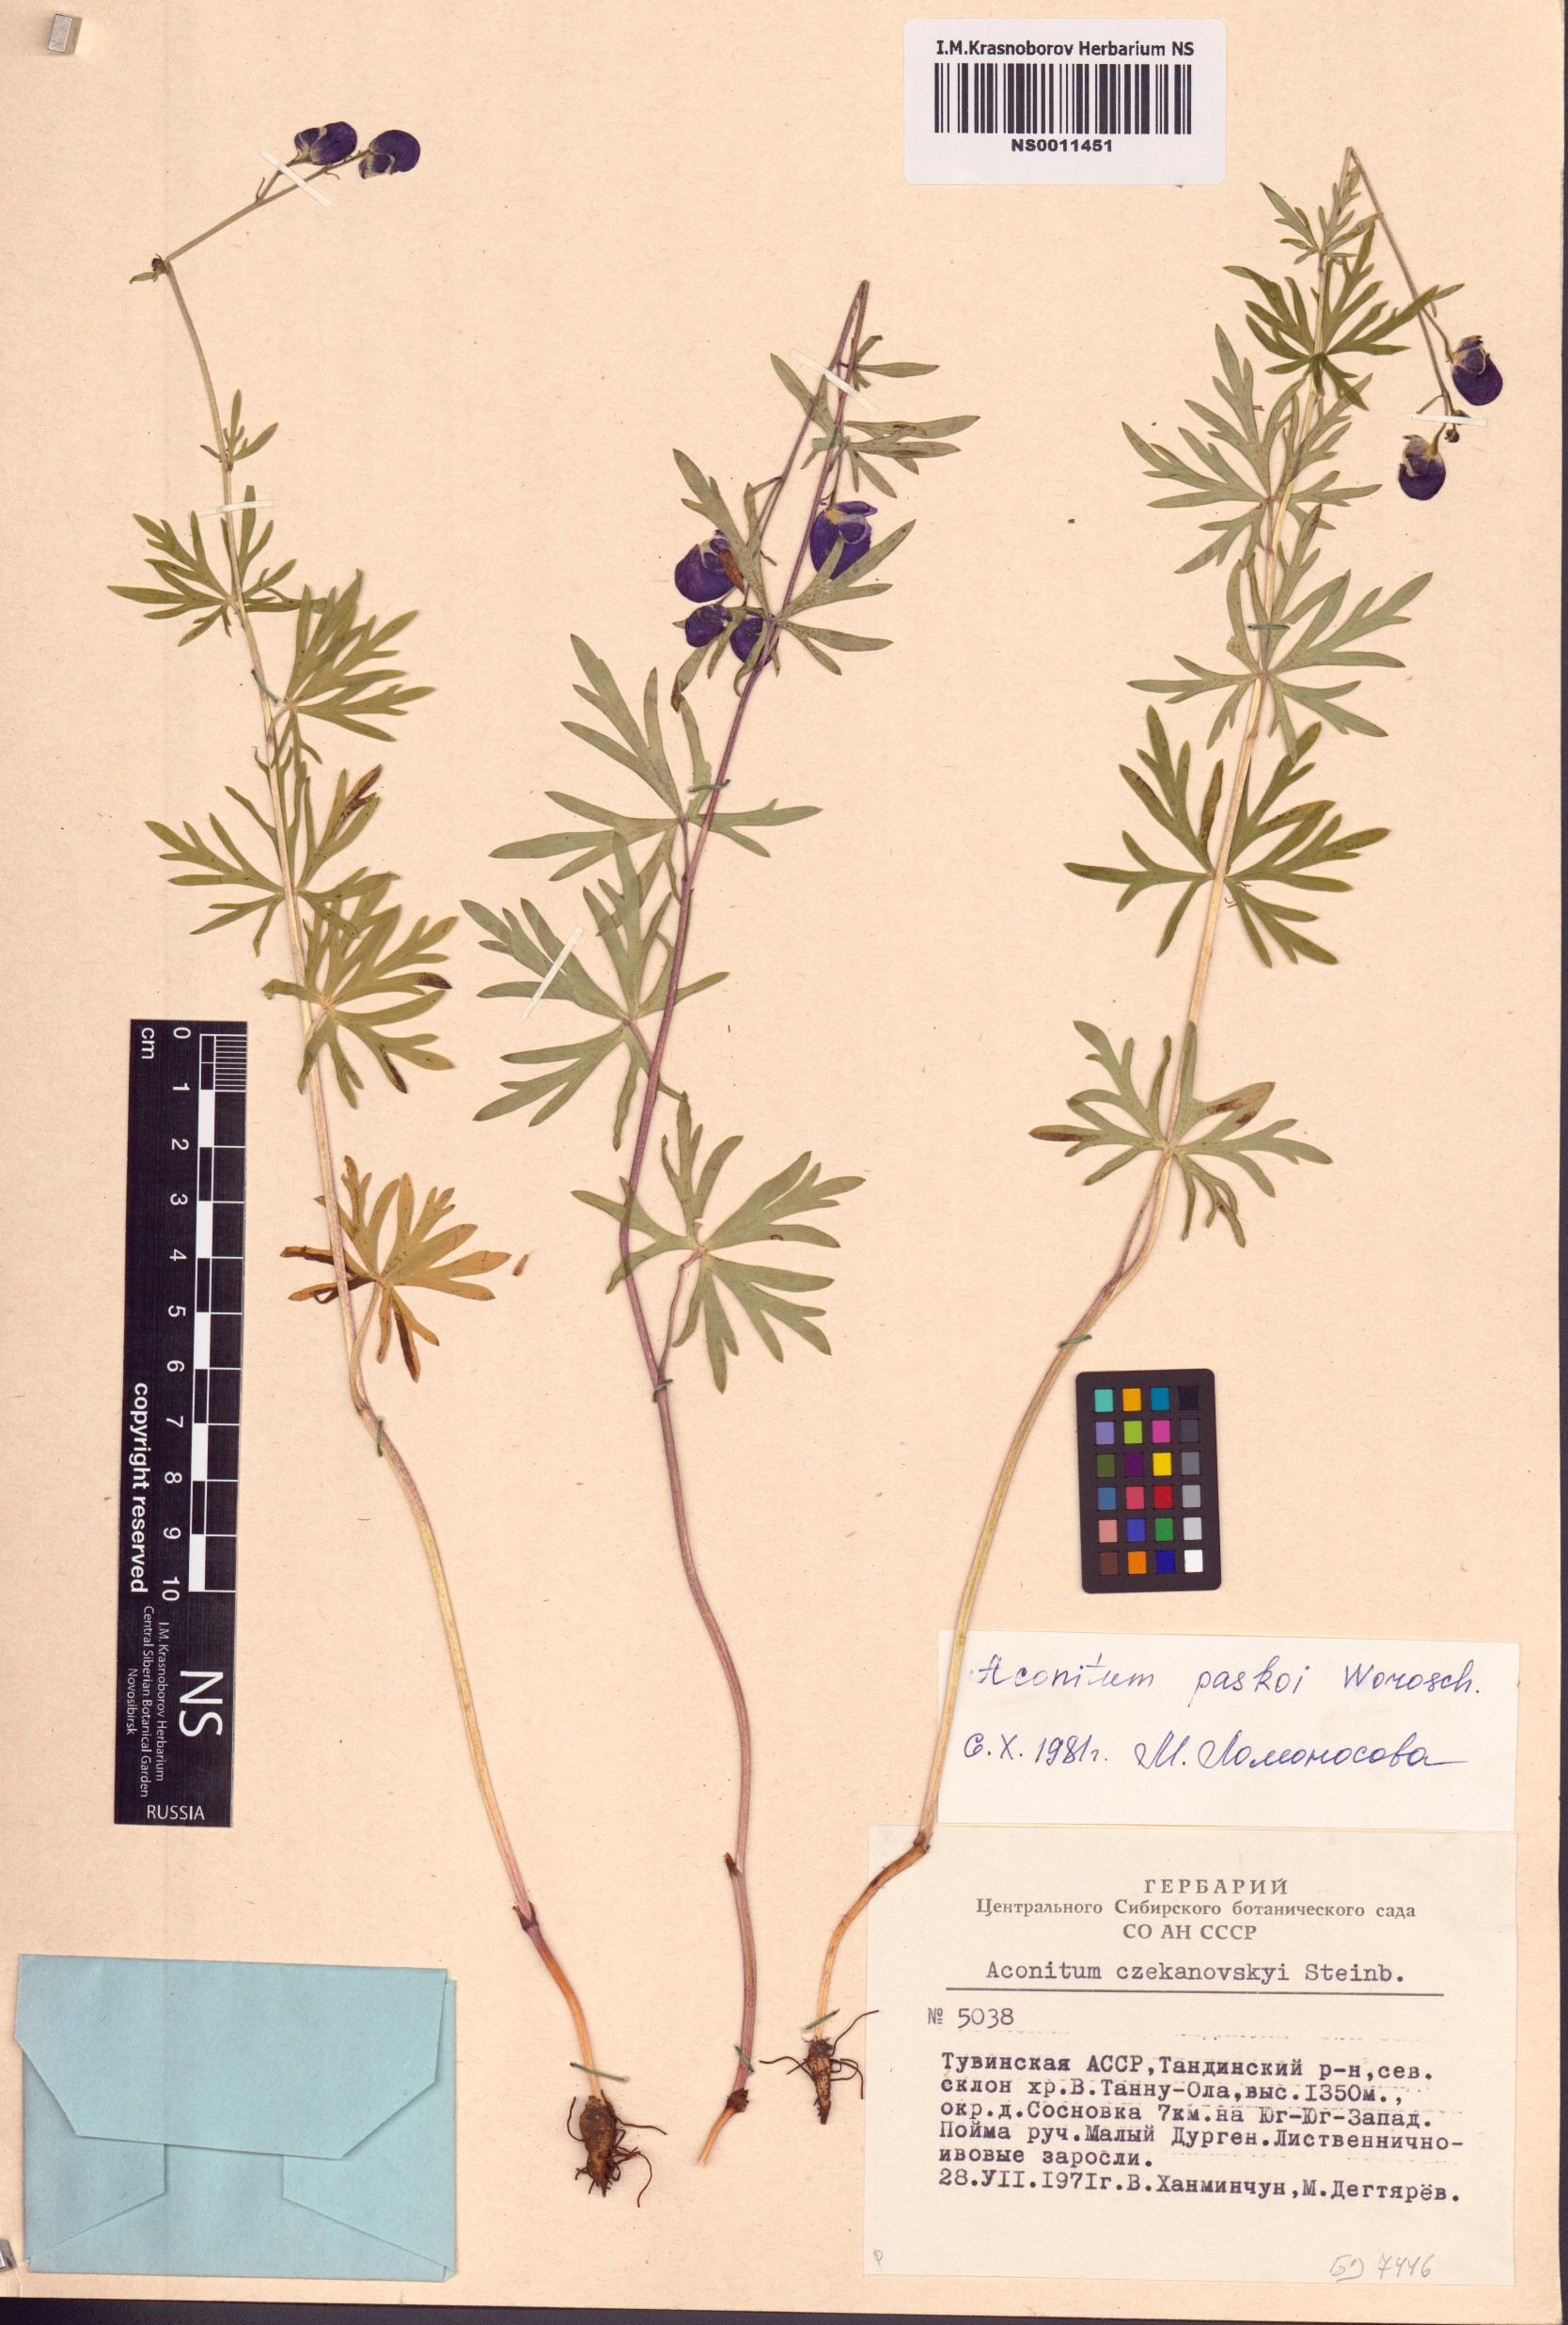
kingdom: Plantae
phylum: Tracheophyta
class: Magnoliopsida
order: Ranunculales
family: Ranunculaceae
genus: Aconitum
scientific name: Aconitum pascoi
